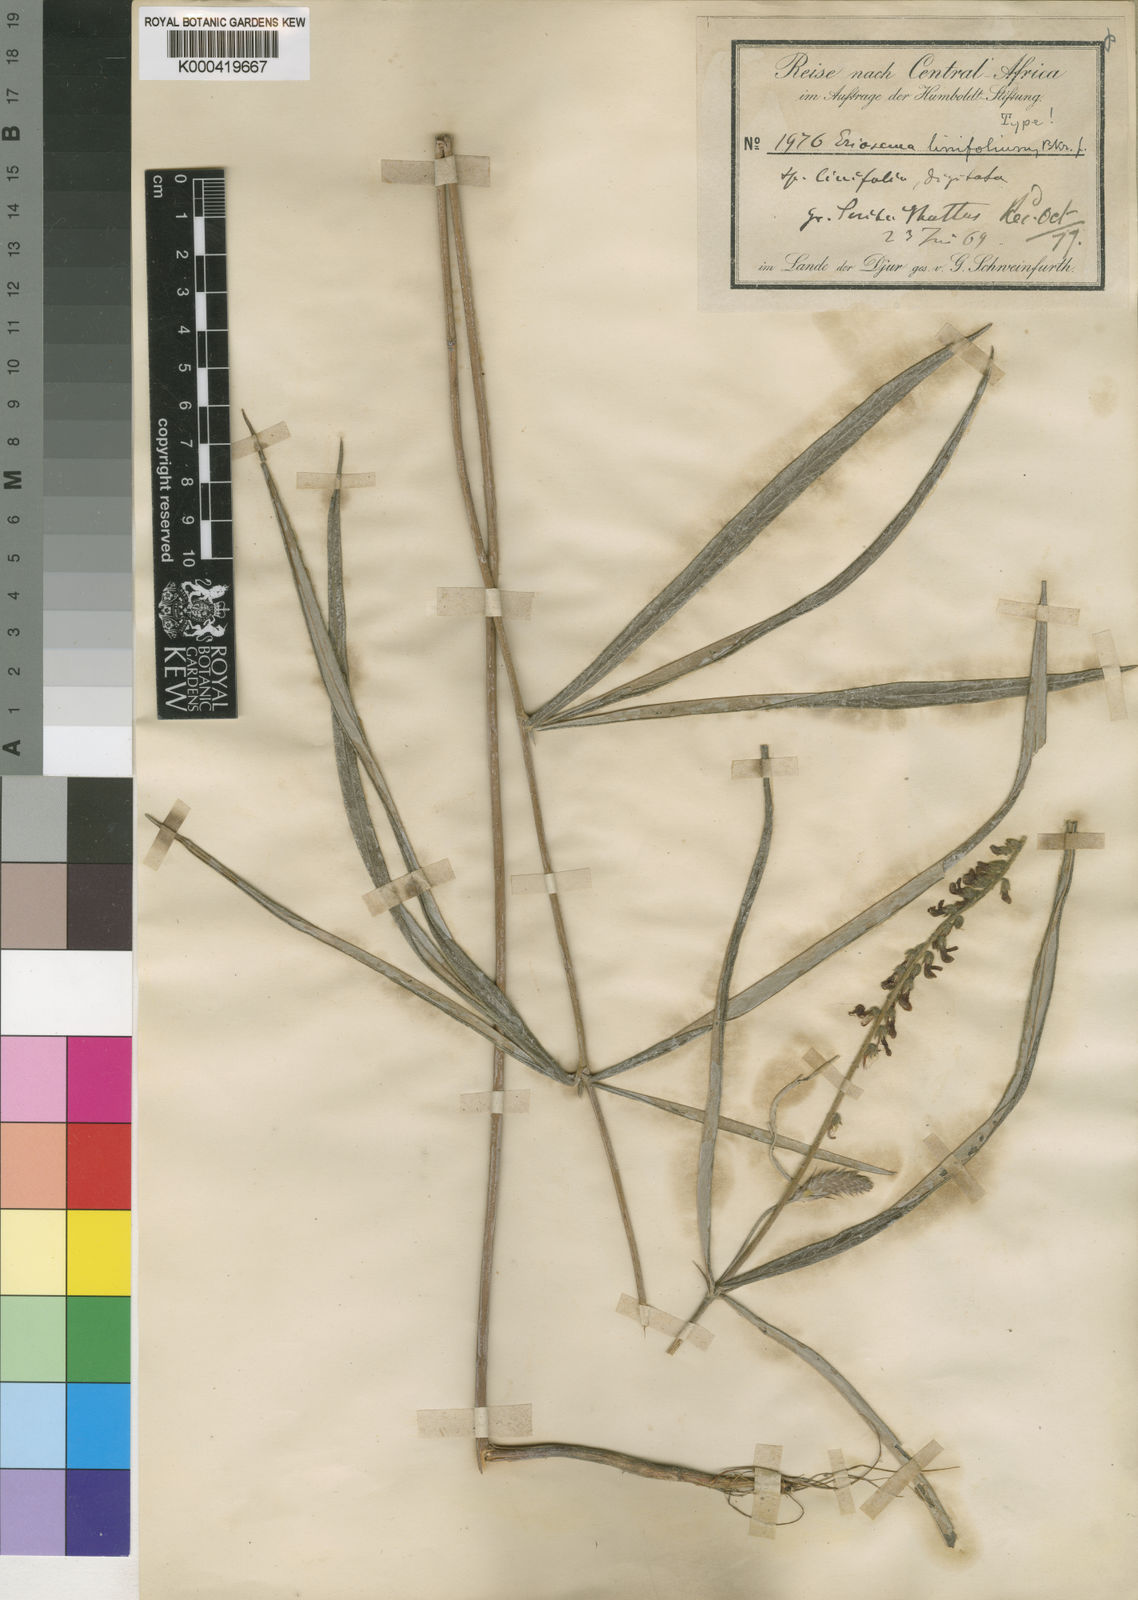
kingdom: Plantae
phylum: Tracheophyta
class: Magnoliopsida
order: Fabales
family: Fabaceae
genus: Eriosema
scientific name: Eriosema linifolium
